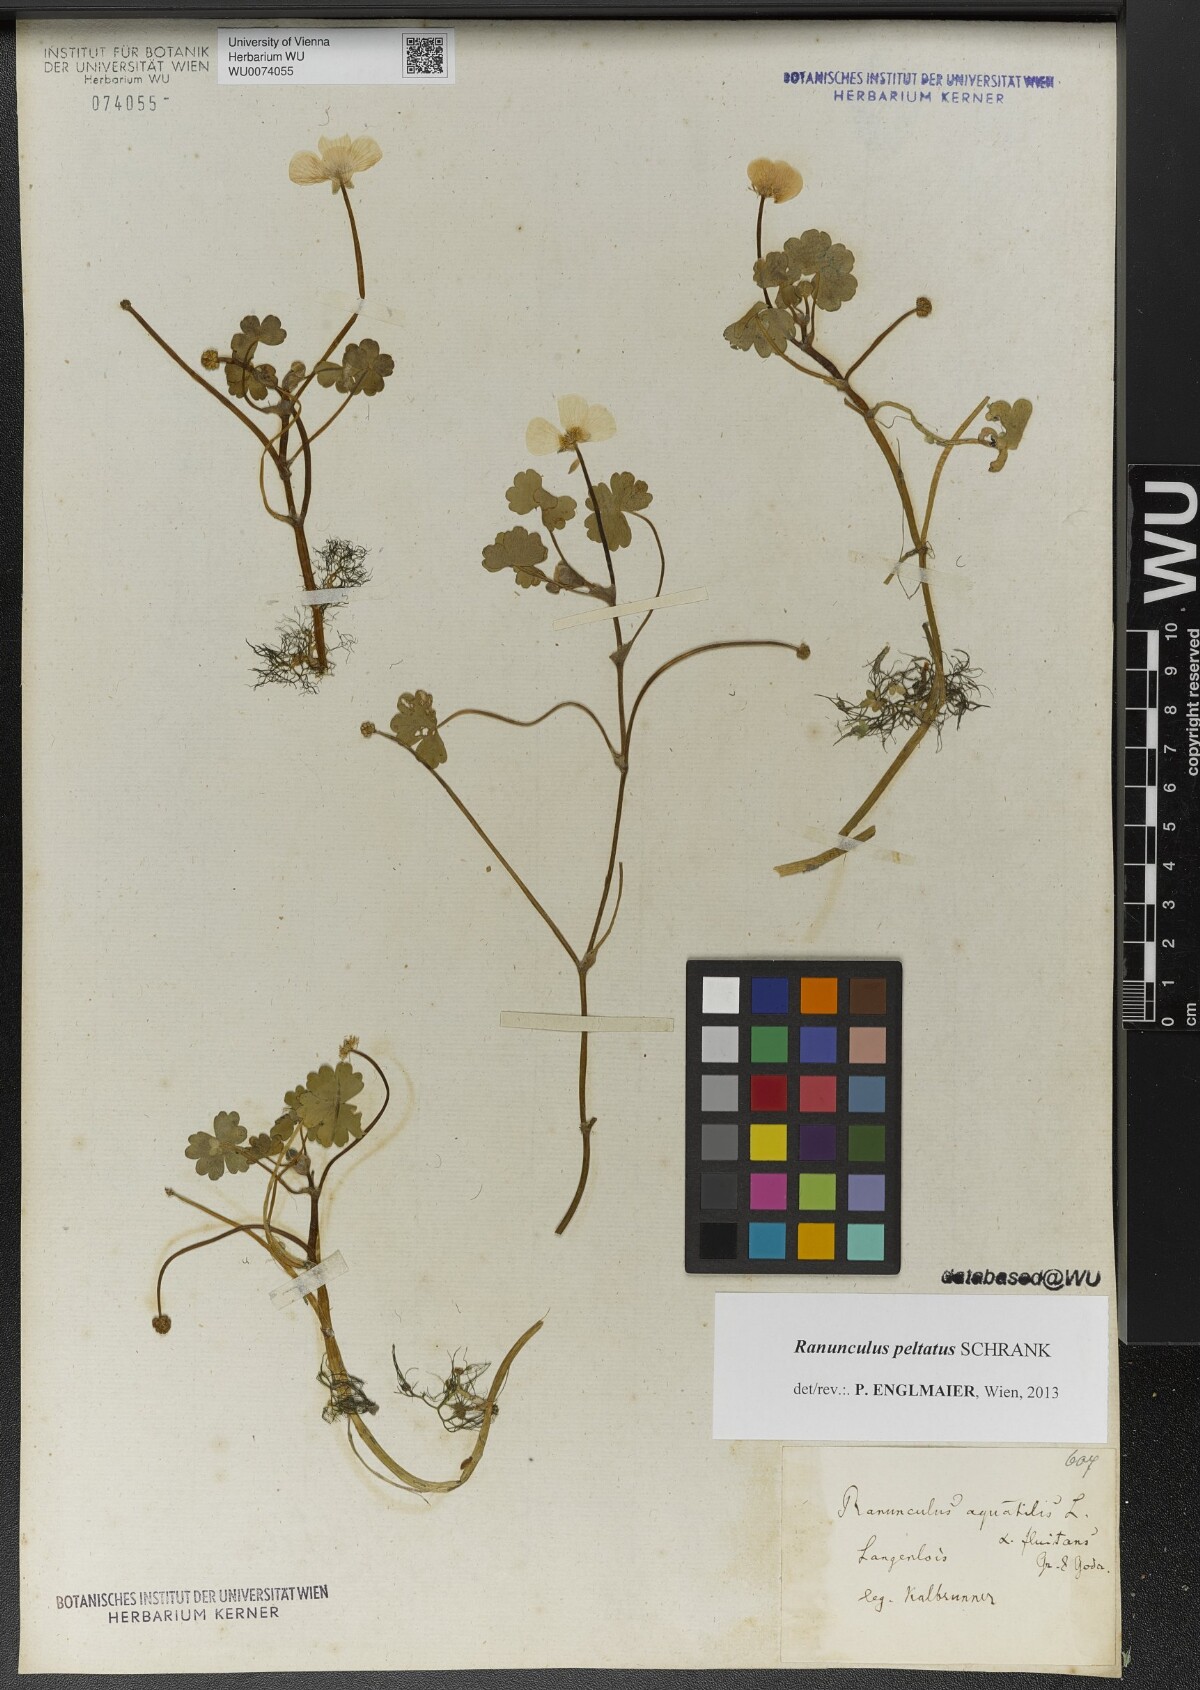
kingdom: Plantae
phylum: Tracheophyta
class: Magnoliopsida
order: Ranunculales
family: Ranunculaceae
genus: Ranunculus
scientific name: Ranunculus fluitans
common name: River water-crowfoot
